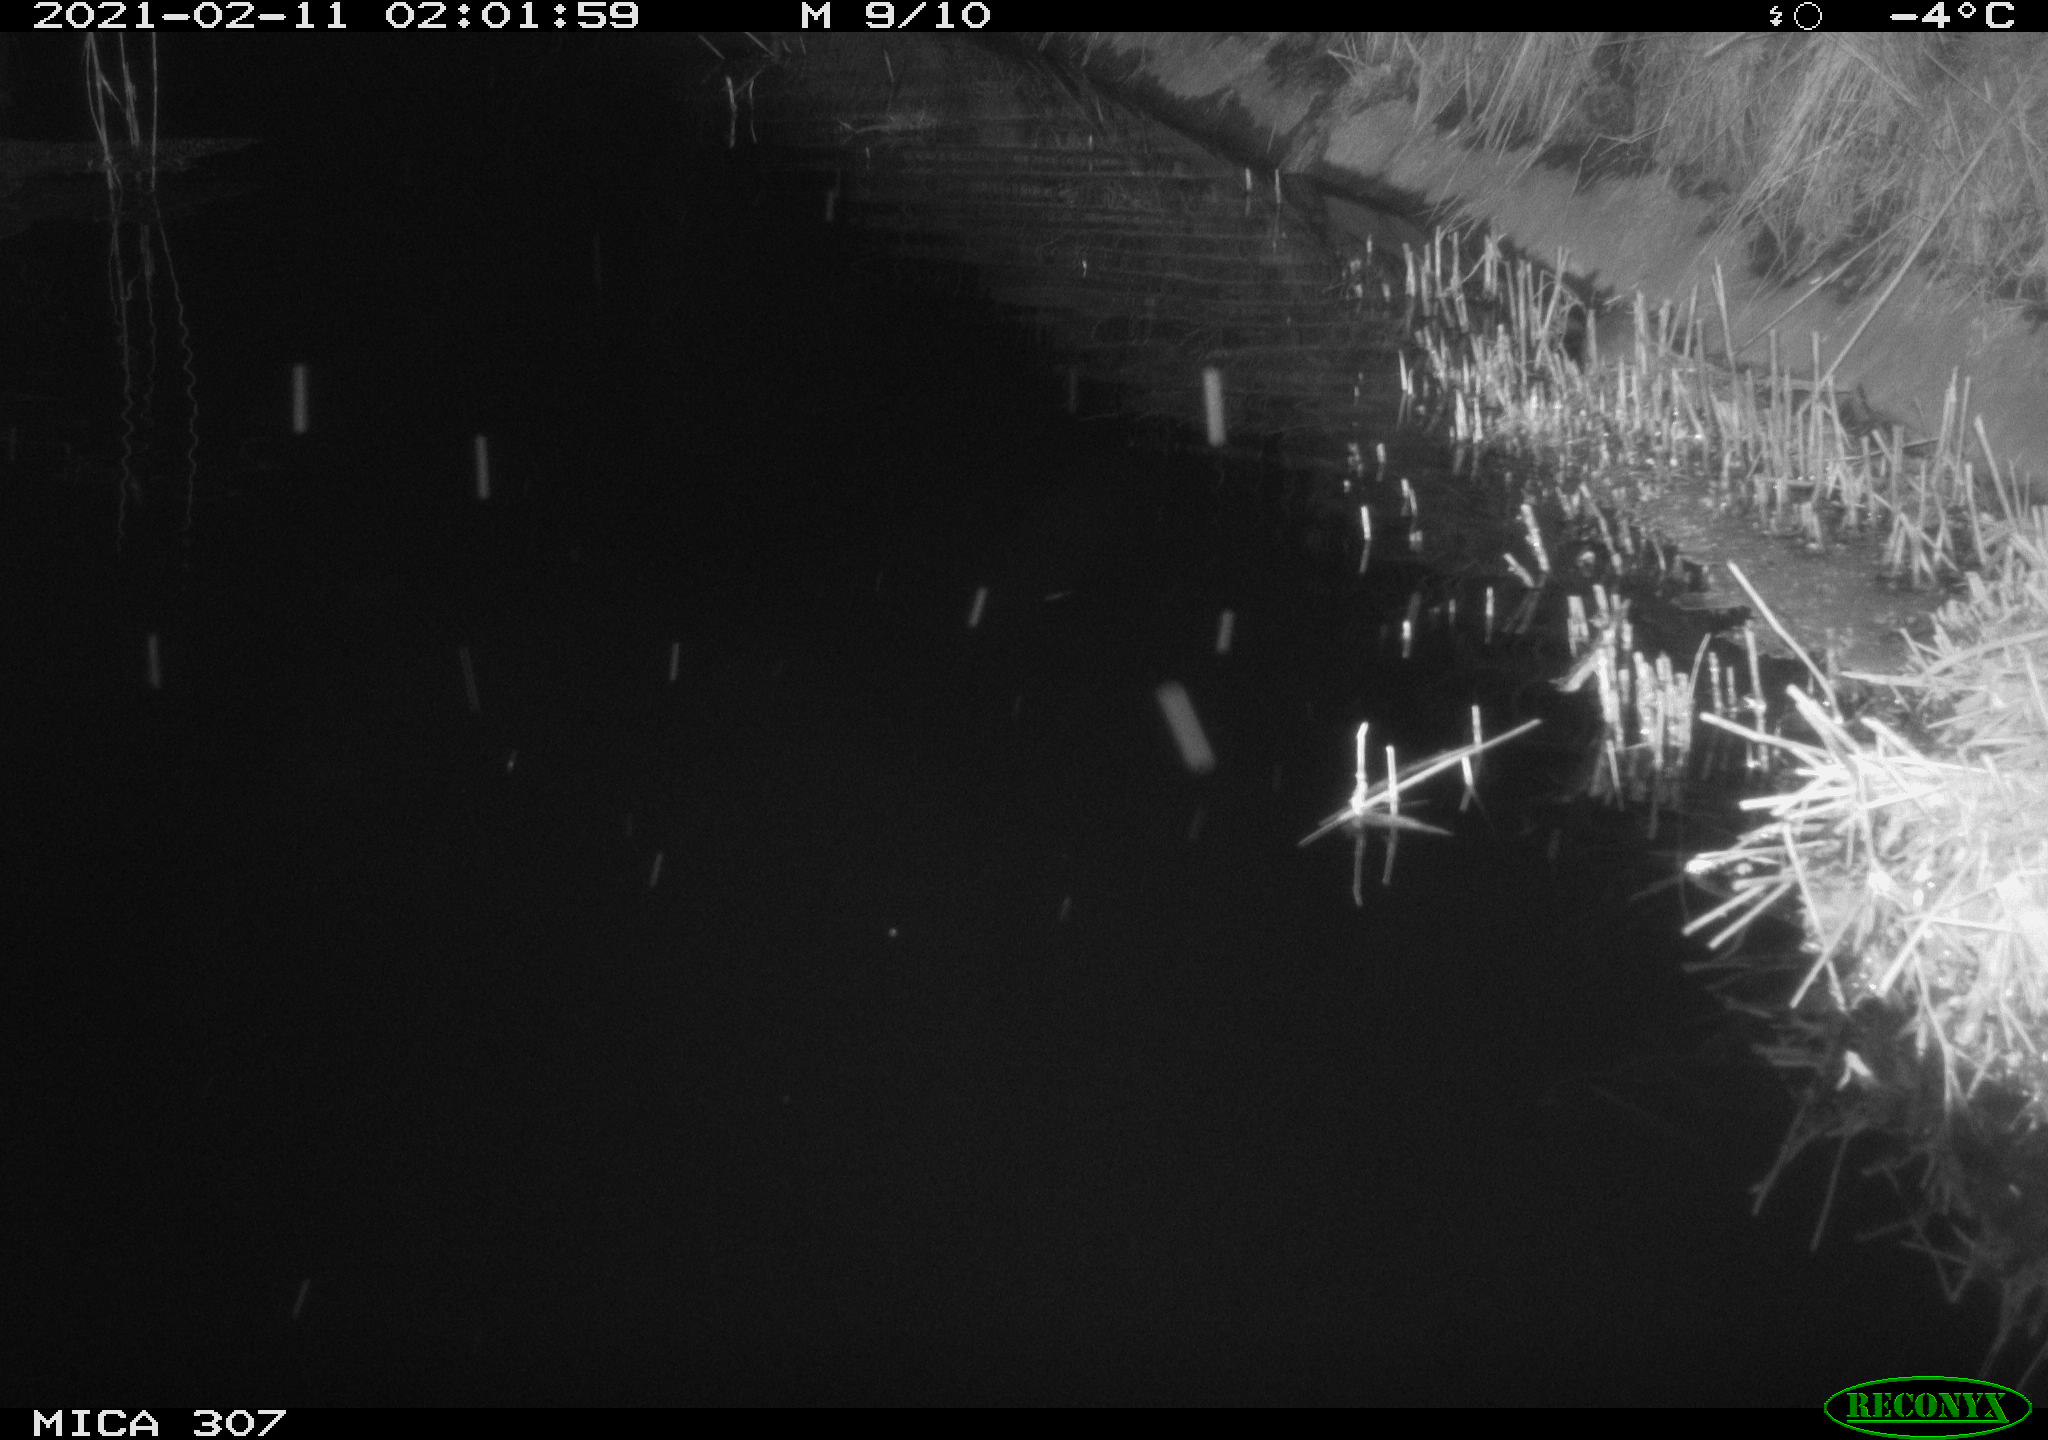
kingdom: Animalia
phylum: Chordata
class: Mammalia
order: Rodentia
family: Muridae
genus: Rattus
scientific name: Rattus norvegicus
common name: Brown rat
